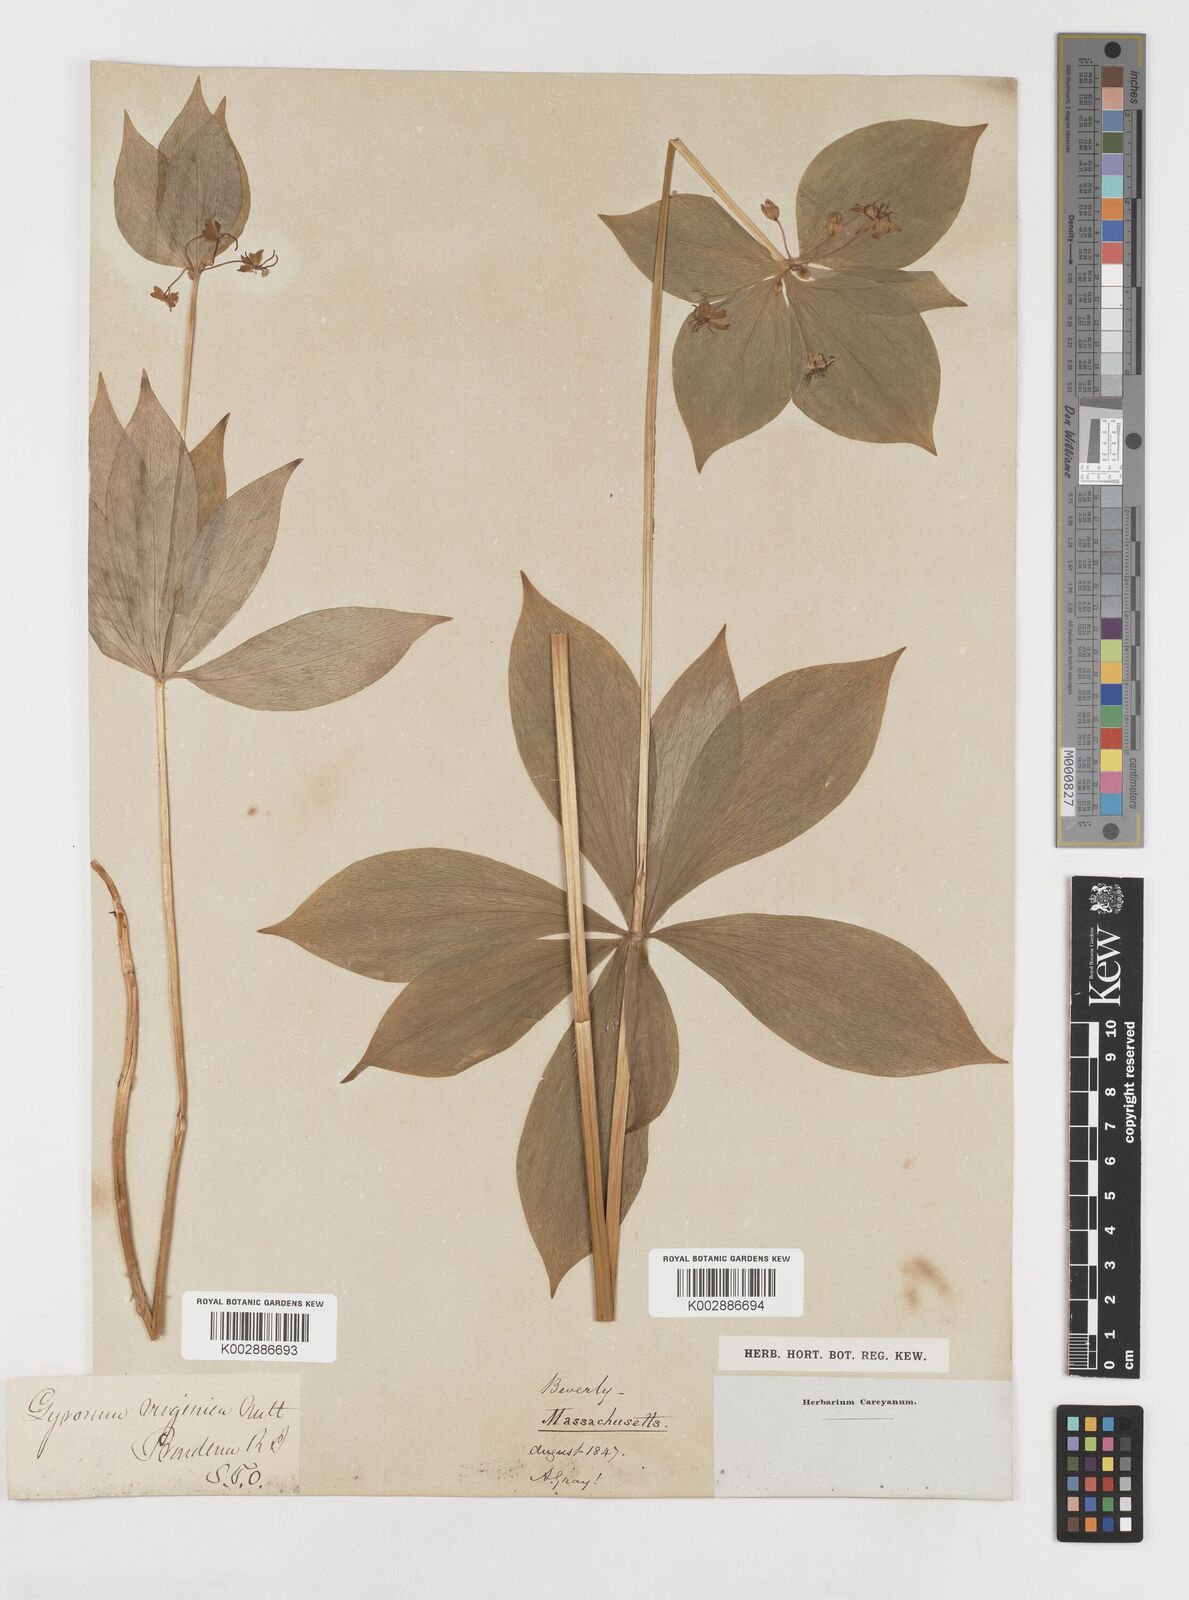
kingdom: Plantae
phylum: Tracheophyta
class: Liliopsida
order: Liliales
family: Liliaceae
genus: Medeola
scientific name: Medeola virginiana
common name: Indian cucumber-root
